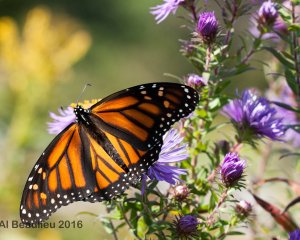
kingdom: Animalia
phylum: Arthropoda
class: Insecta
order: Lepidoptera
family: Nymphalidae
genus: Danaus
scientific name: Danaus plexippus
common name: Monarch
